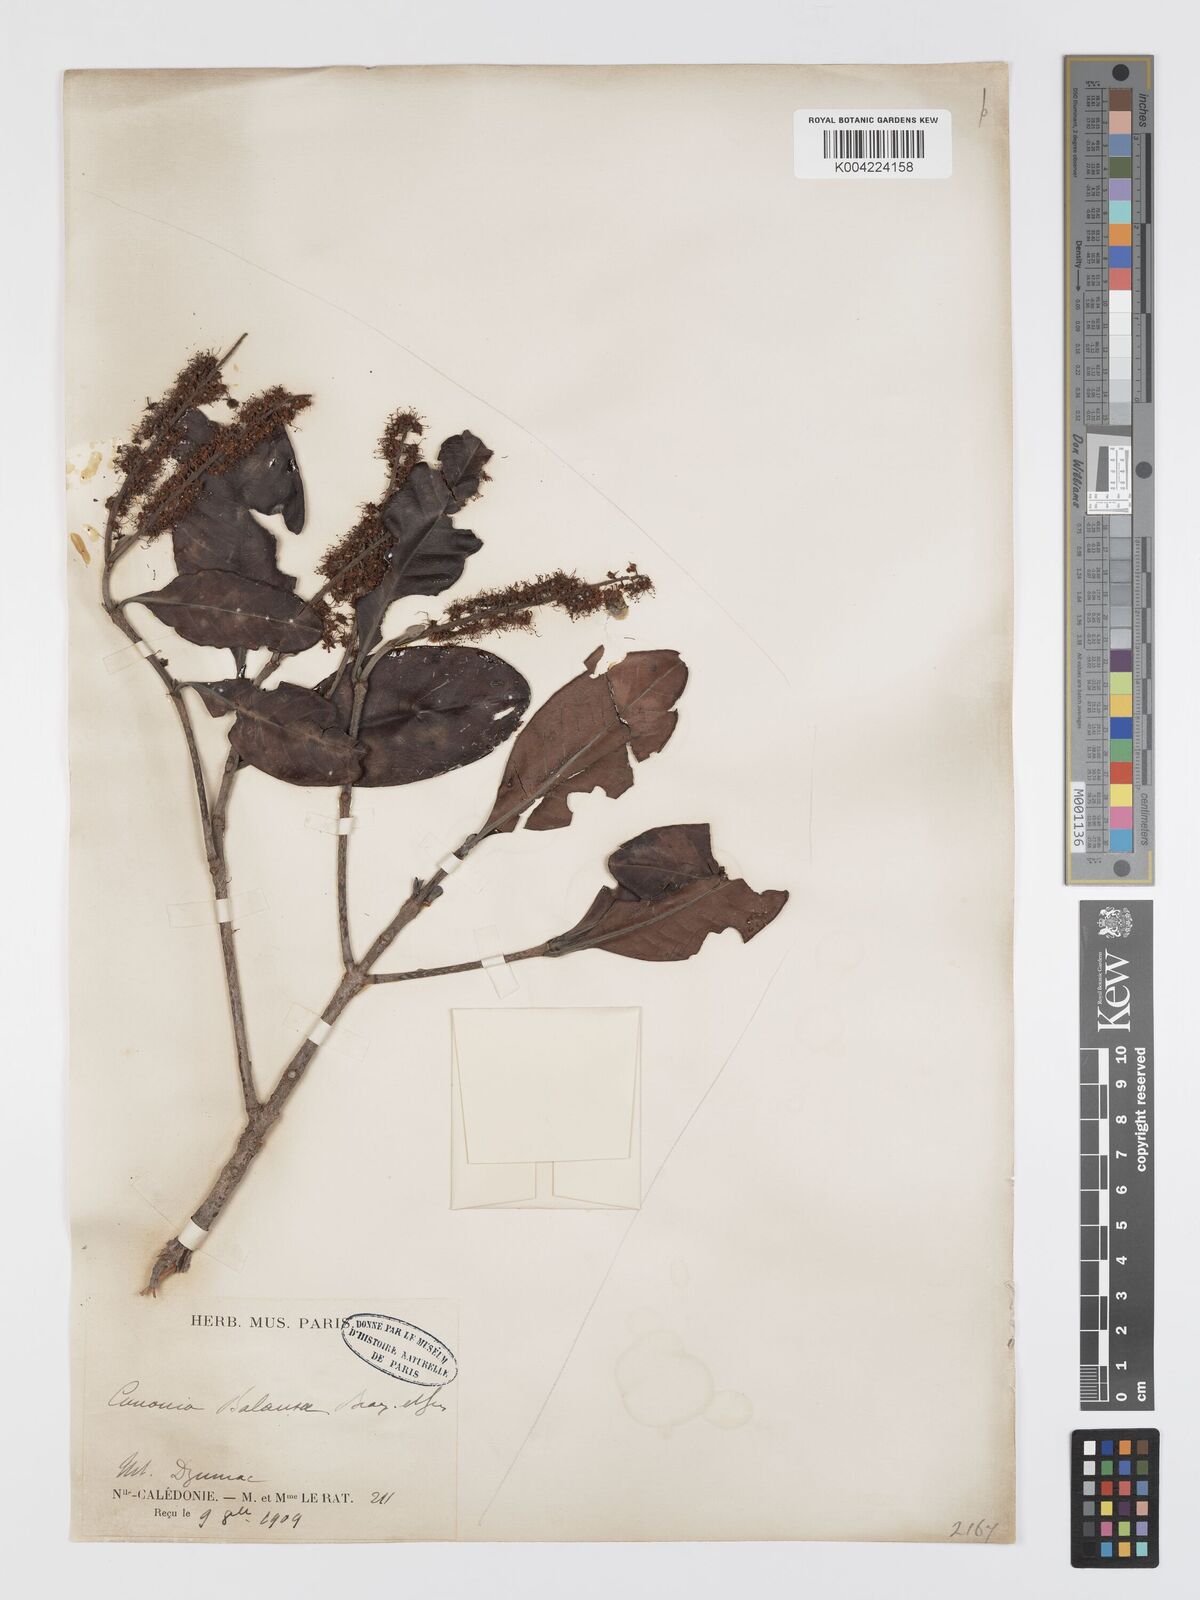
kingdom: Plantae
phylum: Tracheophyta
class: Magnoliopsida
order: Oxalidales
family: Cunoniaceae
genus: Cunonia
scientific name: Cunonia balansae
